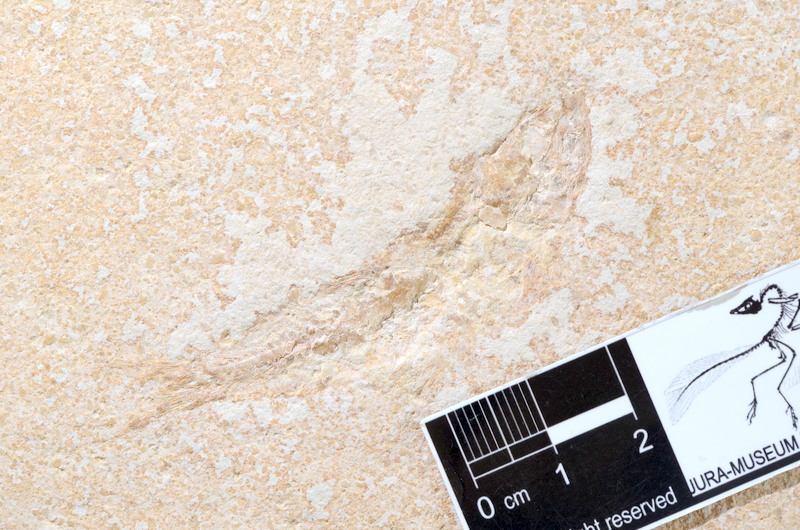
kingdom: Animalia
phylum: Chordata
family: Ascalaboidae
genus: Tharsis
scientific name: Tharsis dubius
